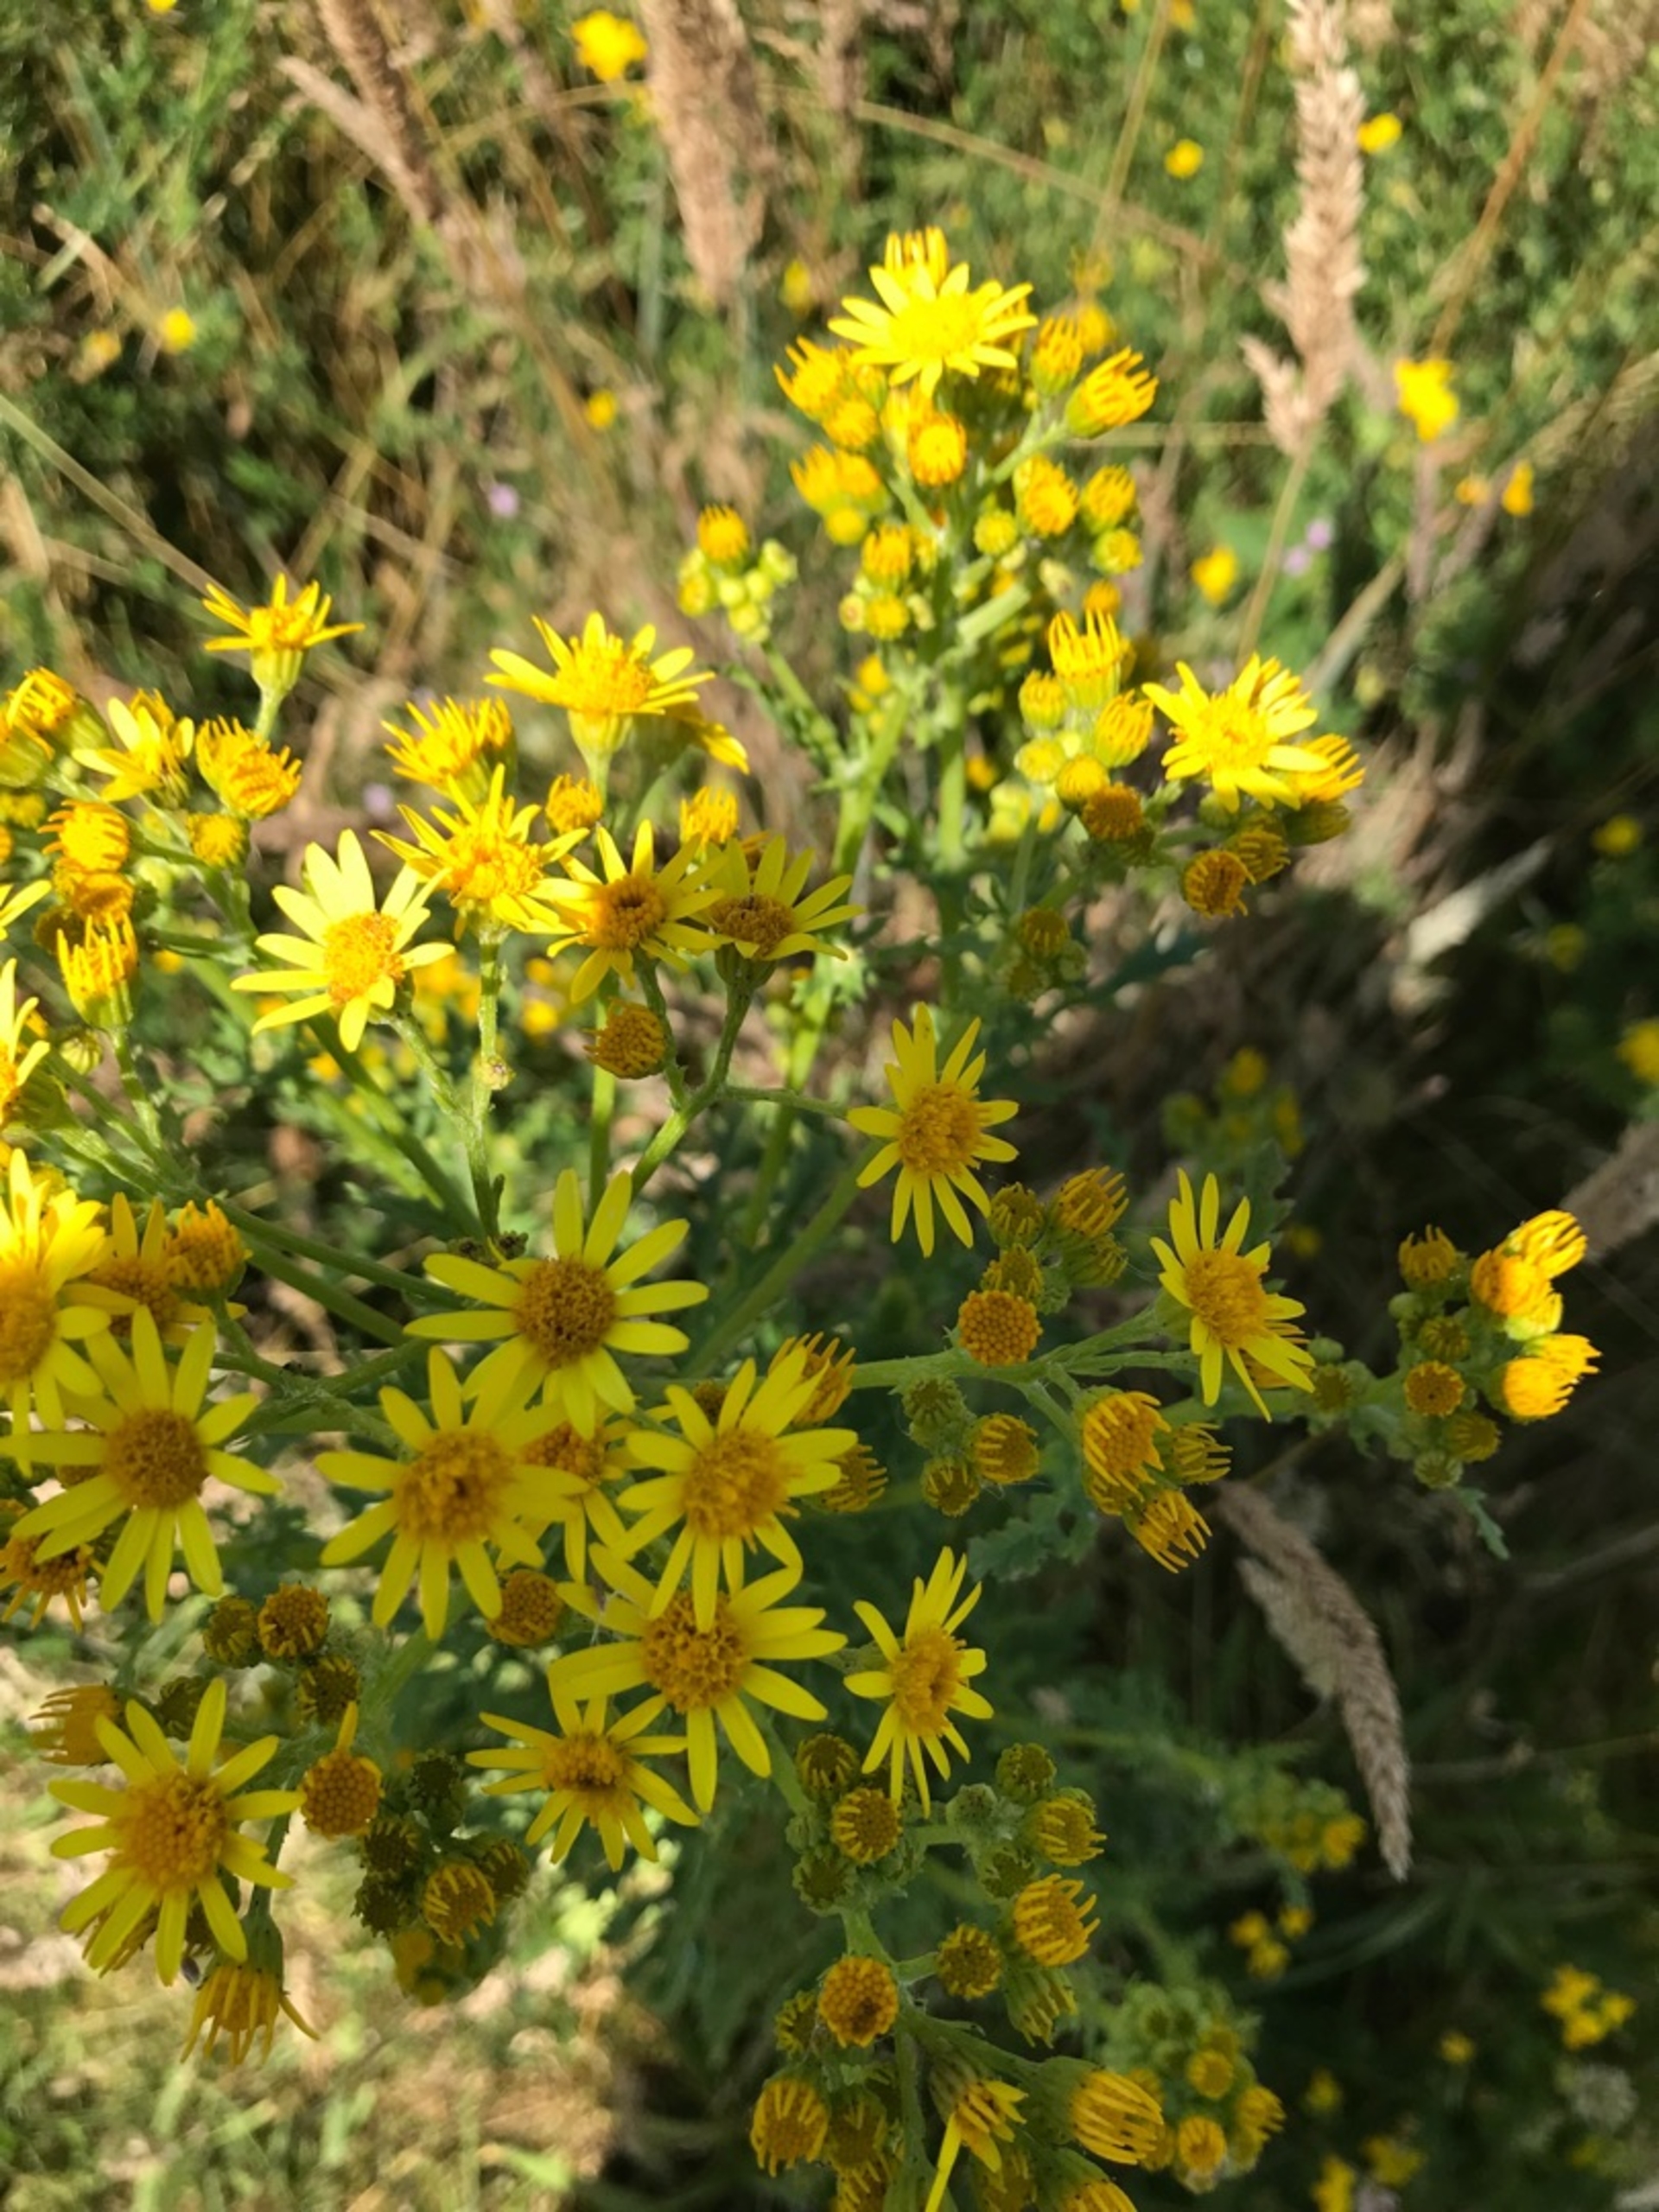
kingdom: Plantae
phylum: Tracheophyta
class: Magnoliopsida
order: Asterales
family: Asteraceae
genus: Jacobaea
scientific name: Jacobaea vulgaris
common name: Eng-brandbæger
